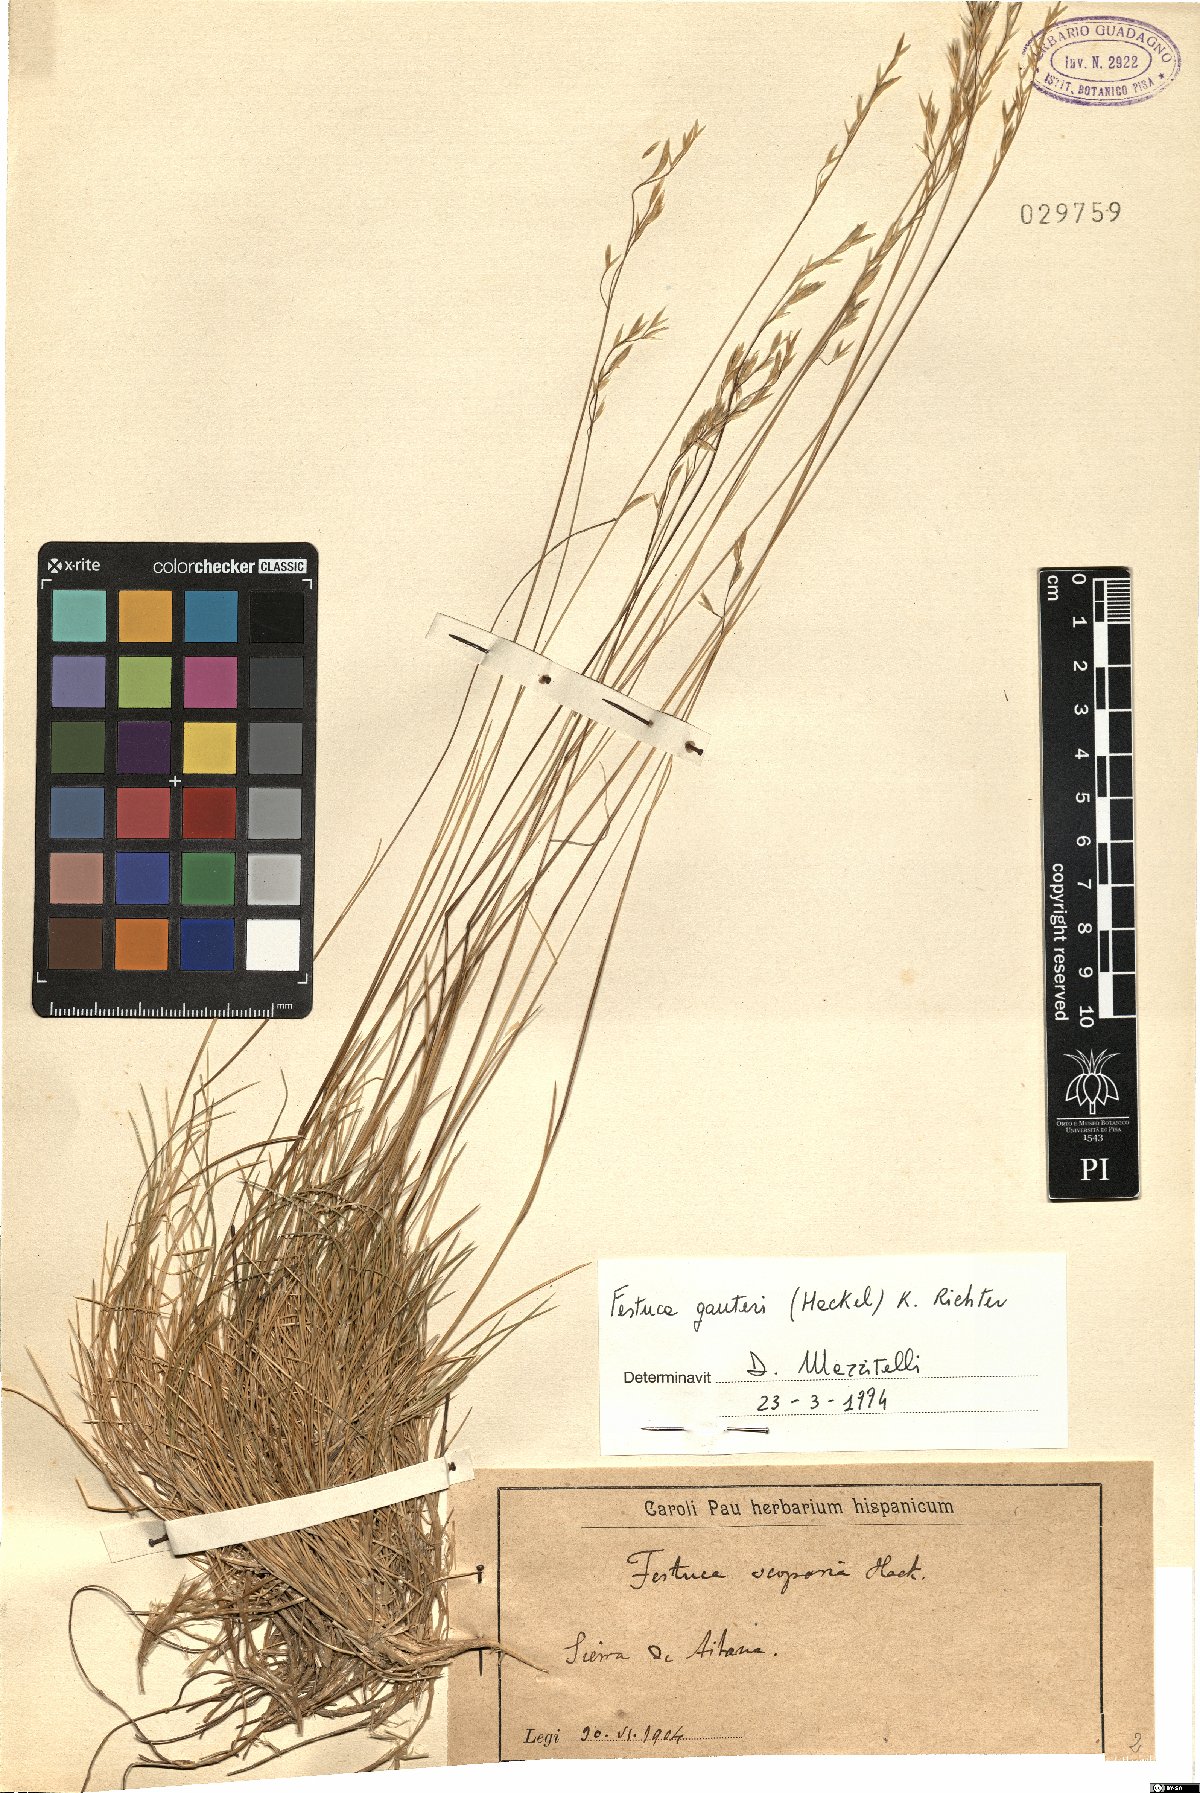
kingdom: Plantae
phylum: Tracheophyta
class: Liliopsida
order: Poales
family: Poaceae
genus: Festuca
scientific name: Festuca gautieri
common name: Spiky fescue
